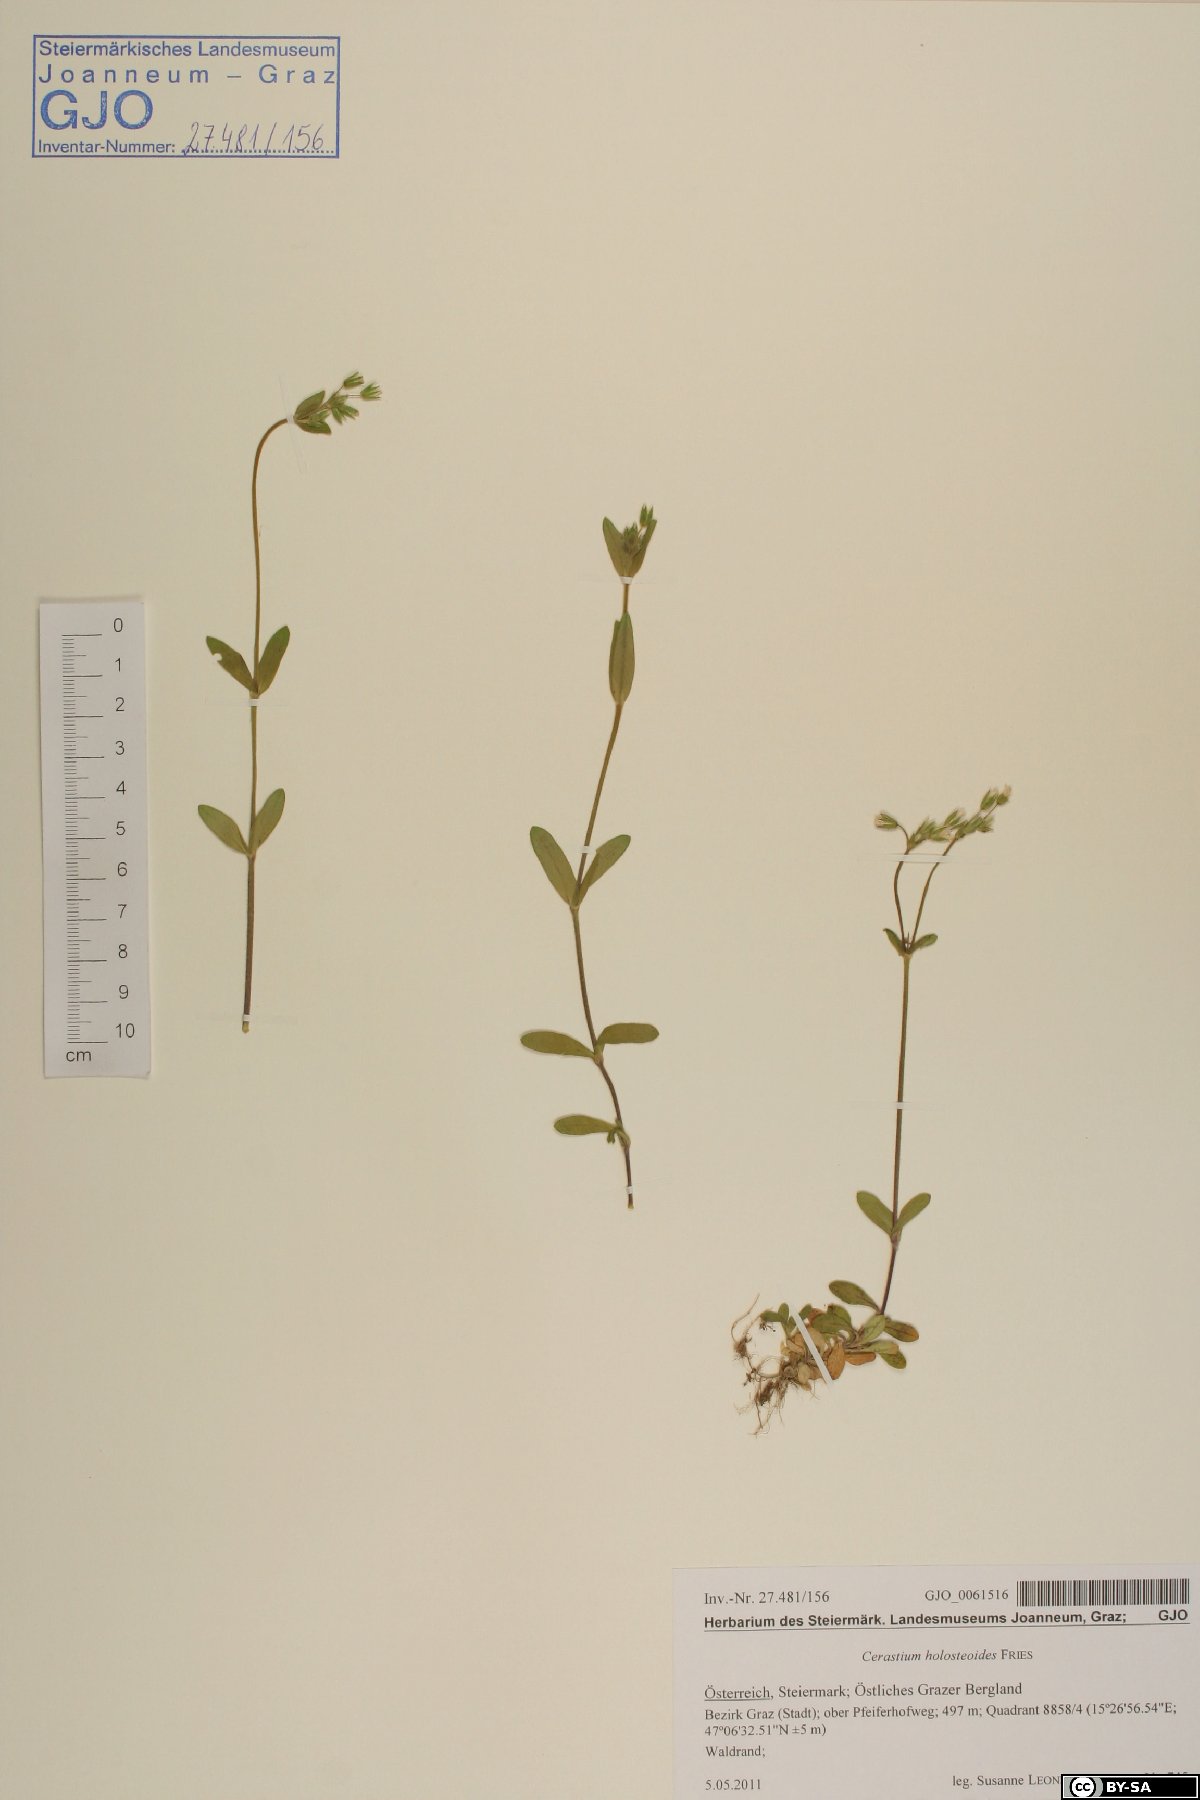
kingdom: Plantae
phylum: Tracheophyta
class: Magnoliopsida
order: Caryophyllales
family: Caryophyllaceae
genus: Cerastium
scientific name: Cerastium holosteoides
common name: Big chickweed
